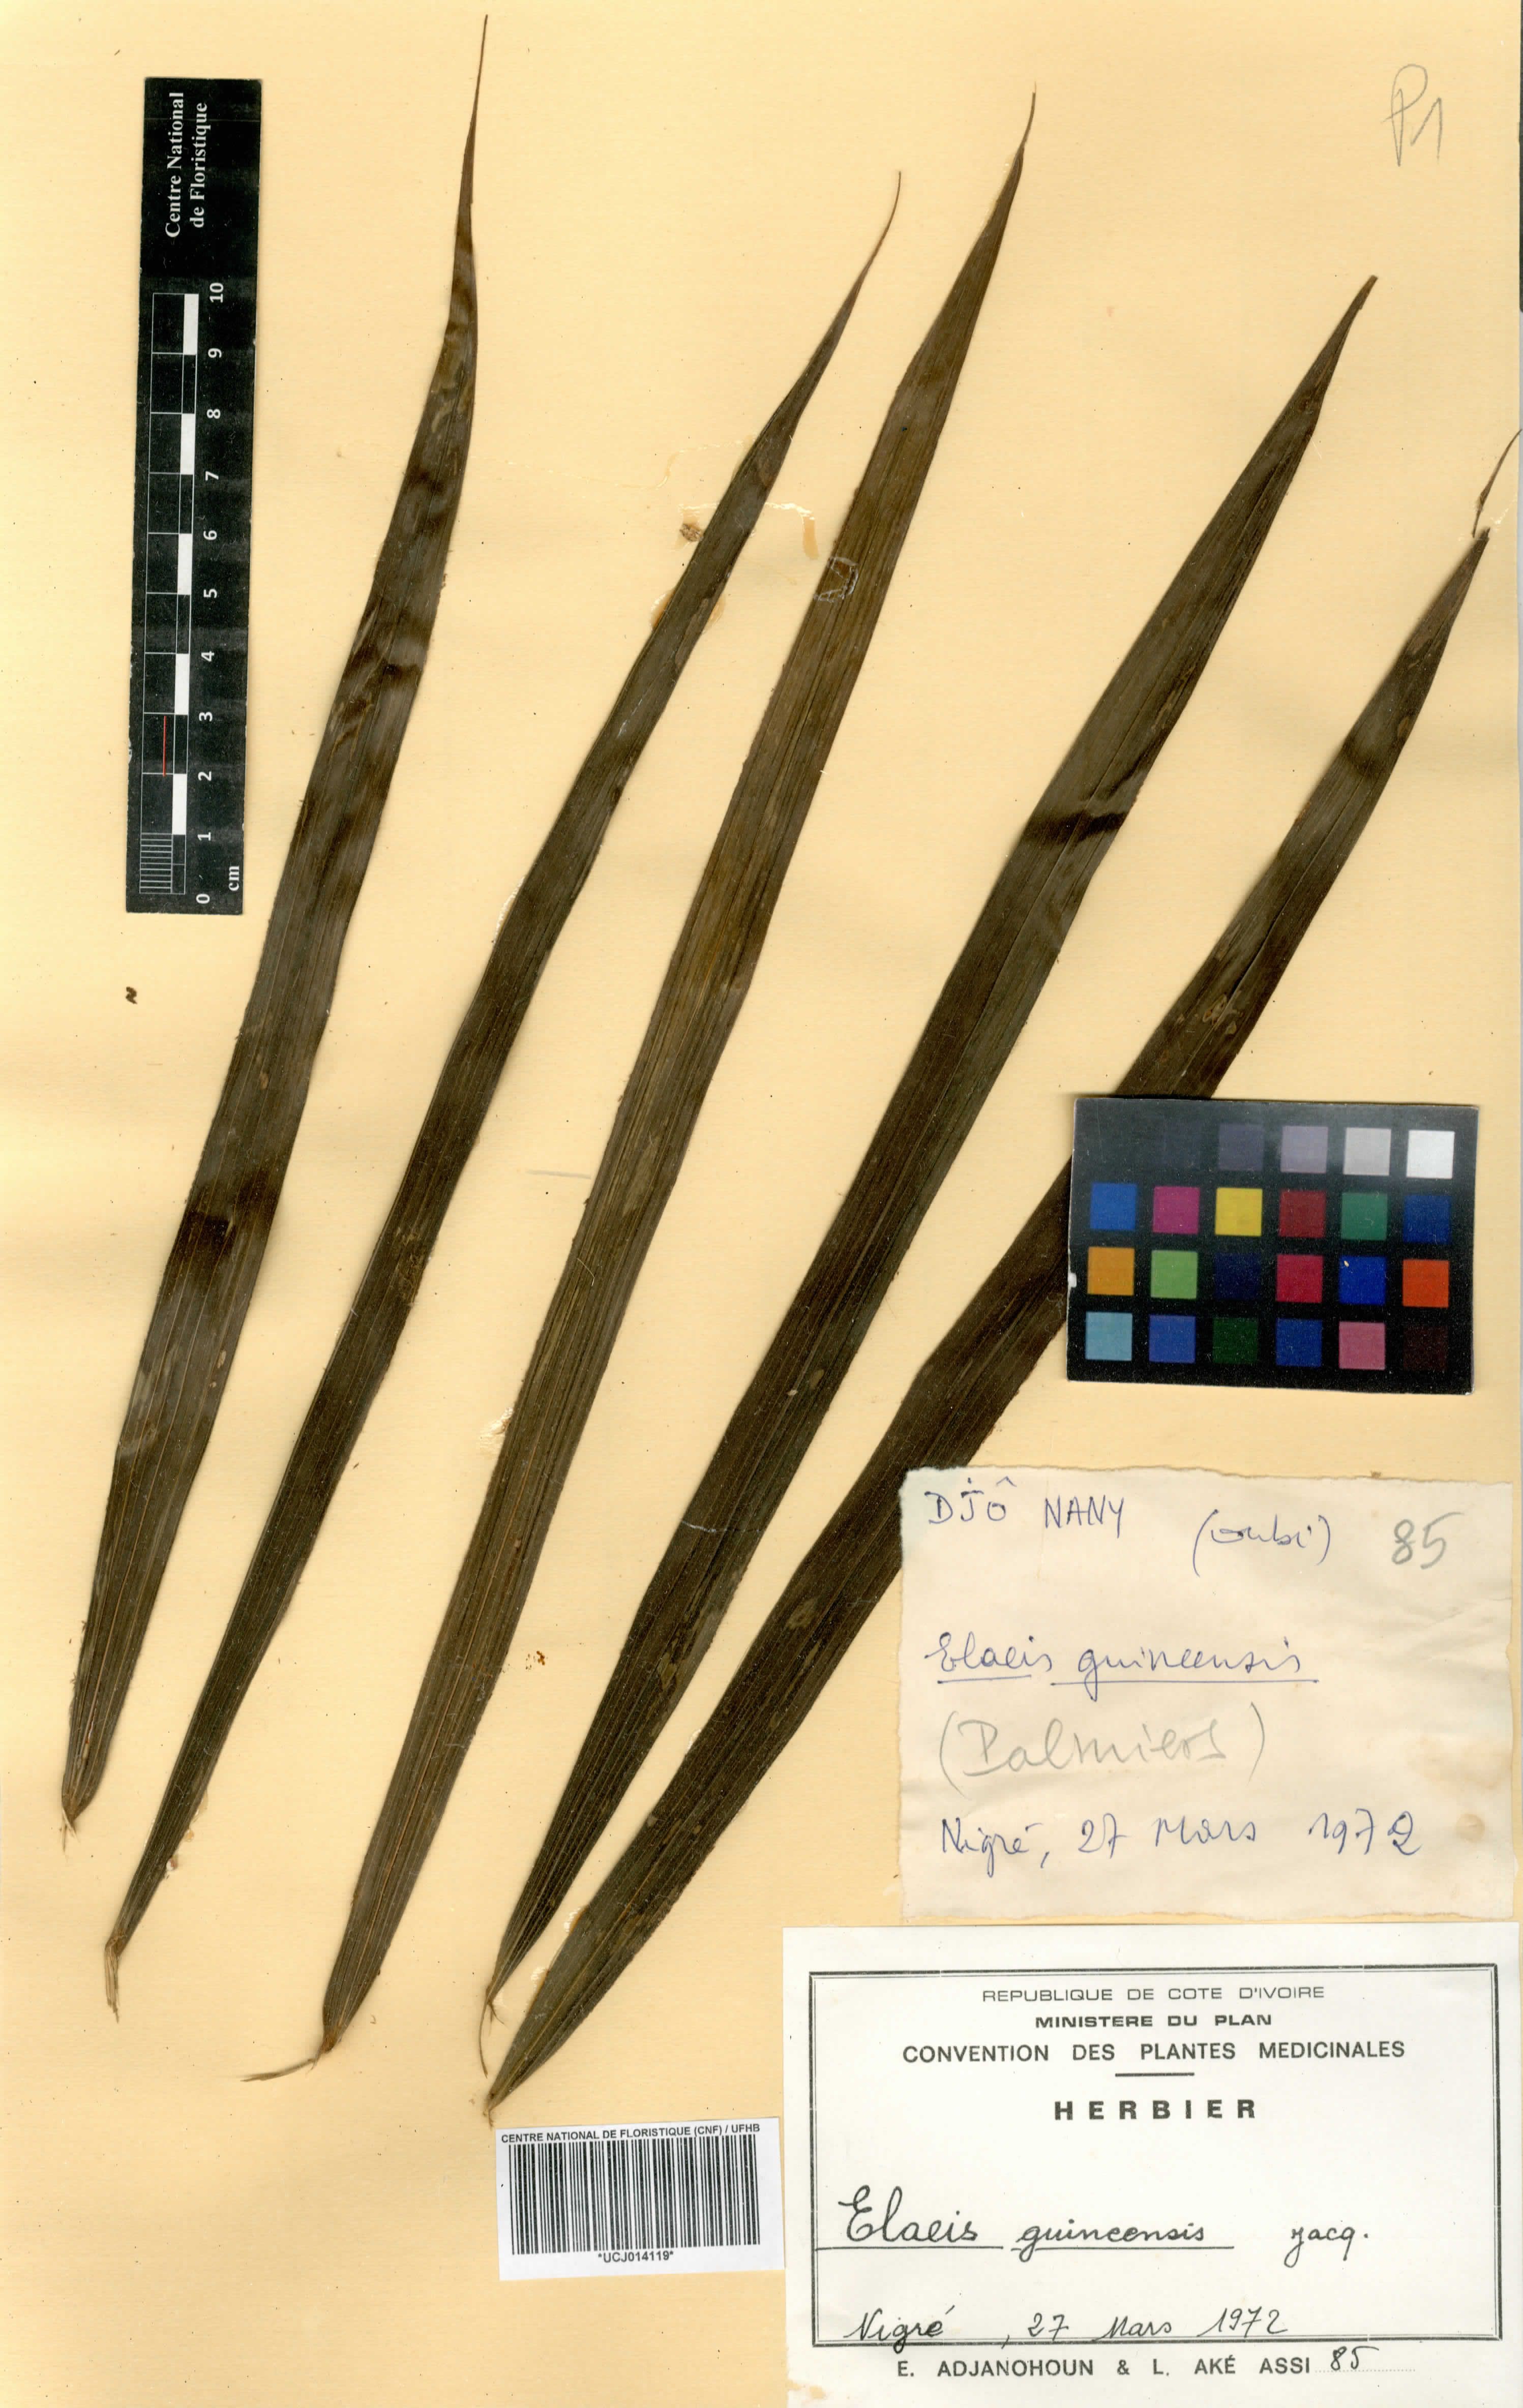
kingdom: Plantae
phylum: Tracheophyta
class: Liliopsida
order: Arecales
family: Arecaceae
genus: Elaeis
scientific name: Elaeis guineensis
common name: Oil palm
